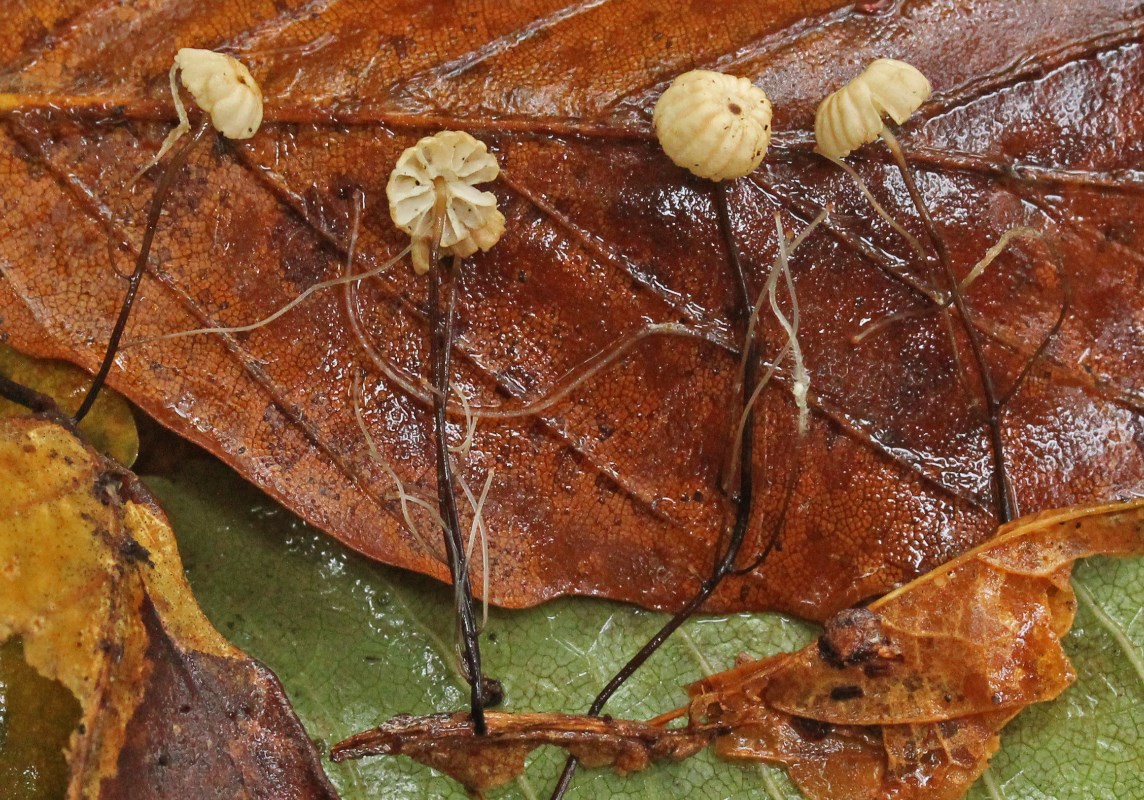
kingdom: Fungi
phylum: Basidiomycota
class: Agaricomycetes
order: Agaricales
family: Marasmiaceae
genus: Marasmius
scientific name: Marasmius bulliardii
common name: furet bruskhat
